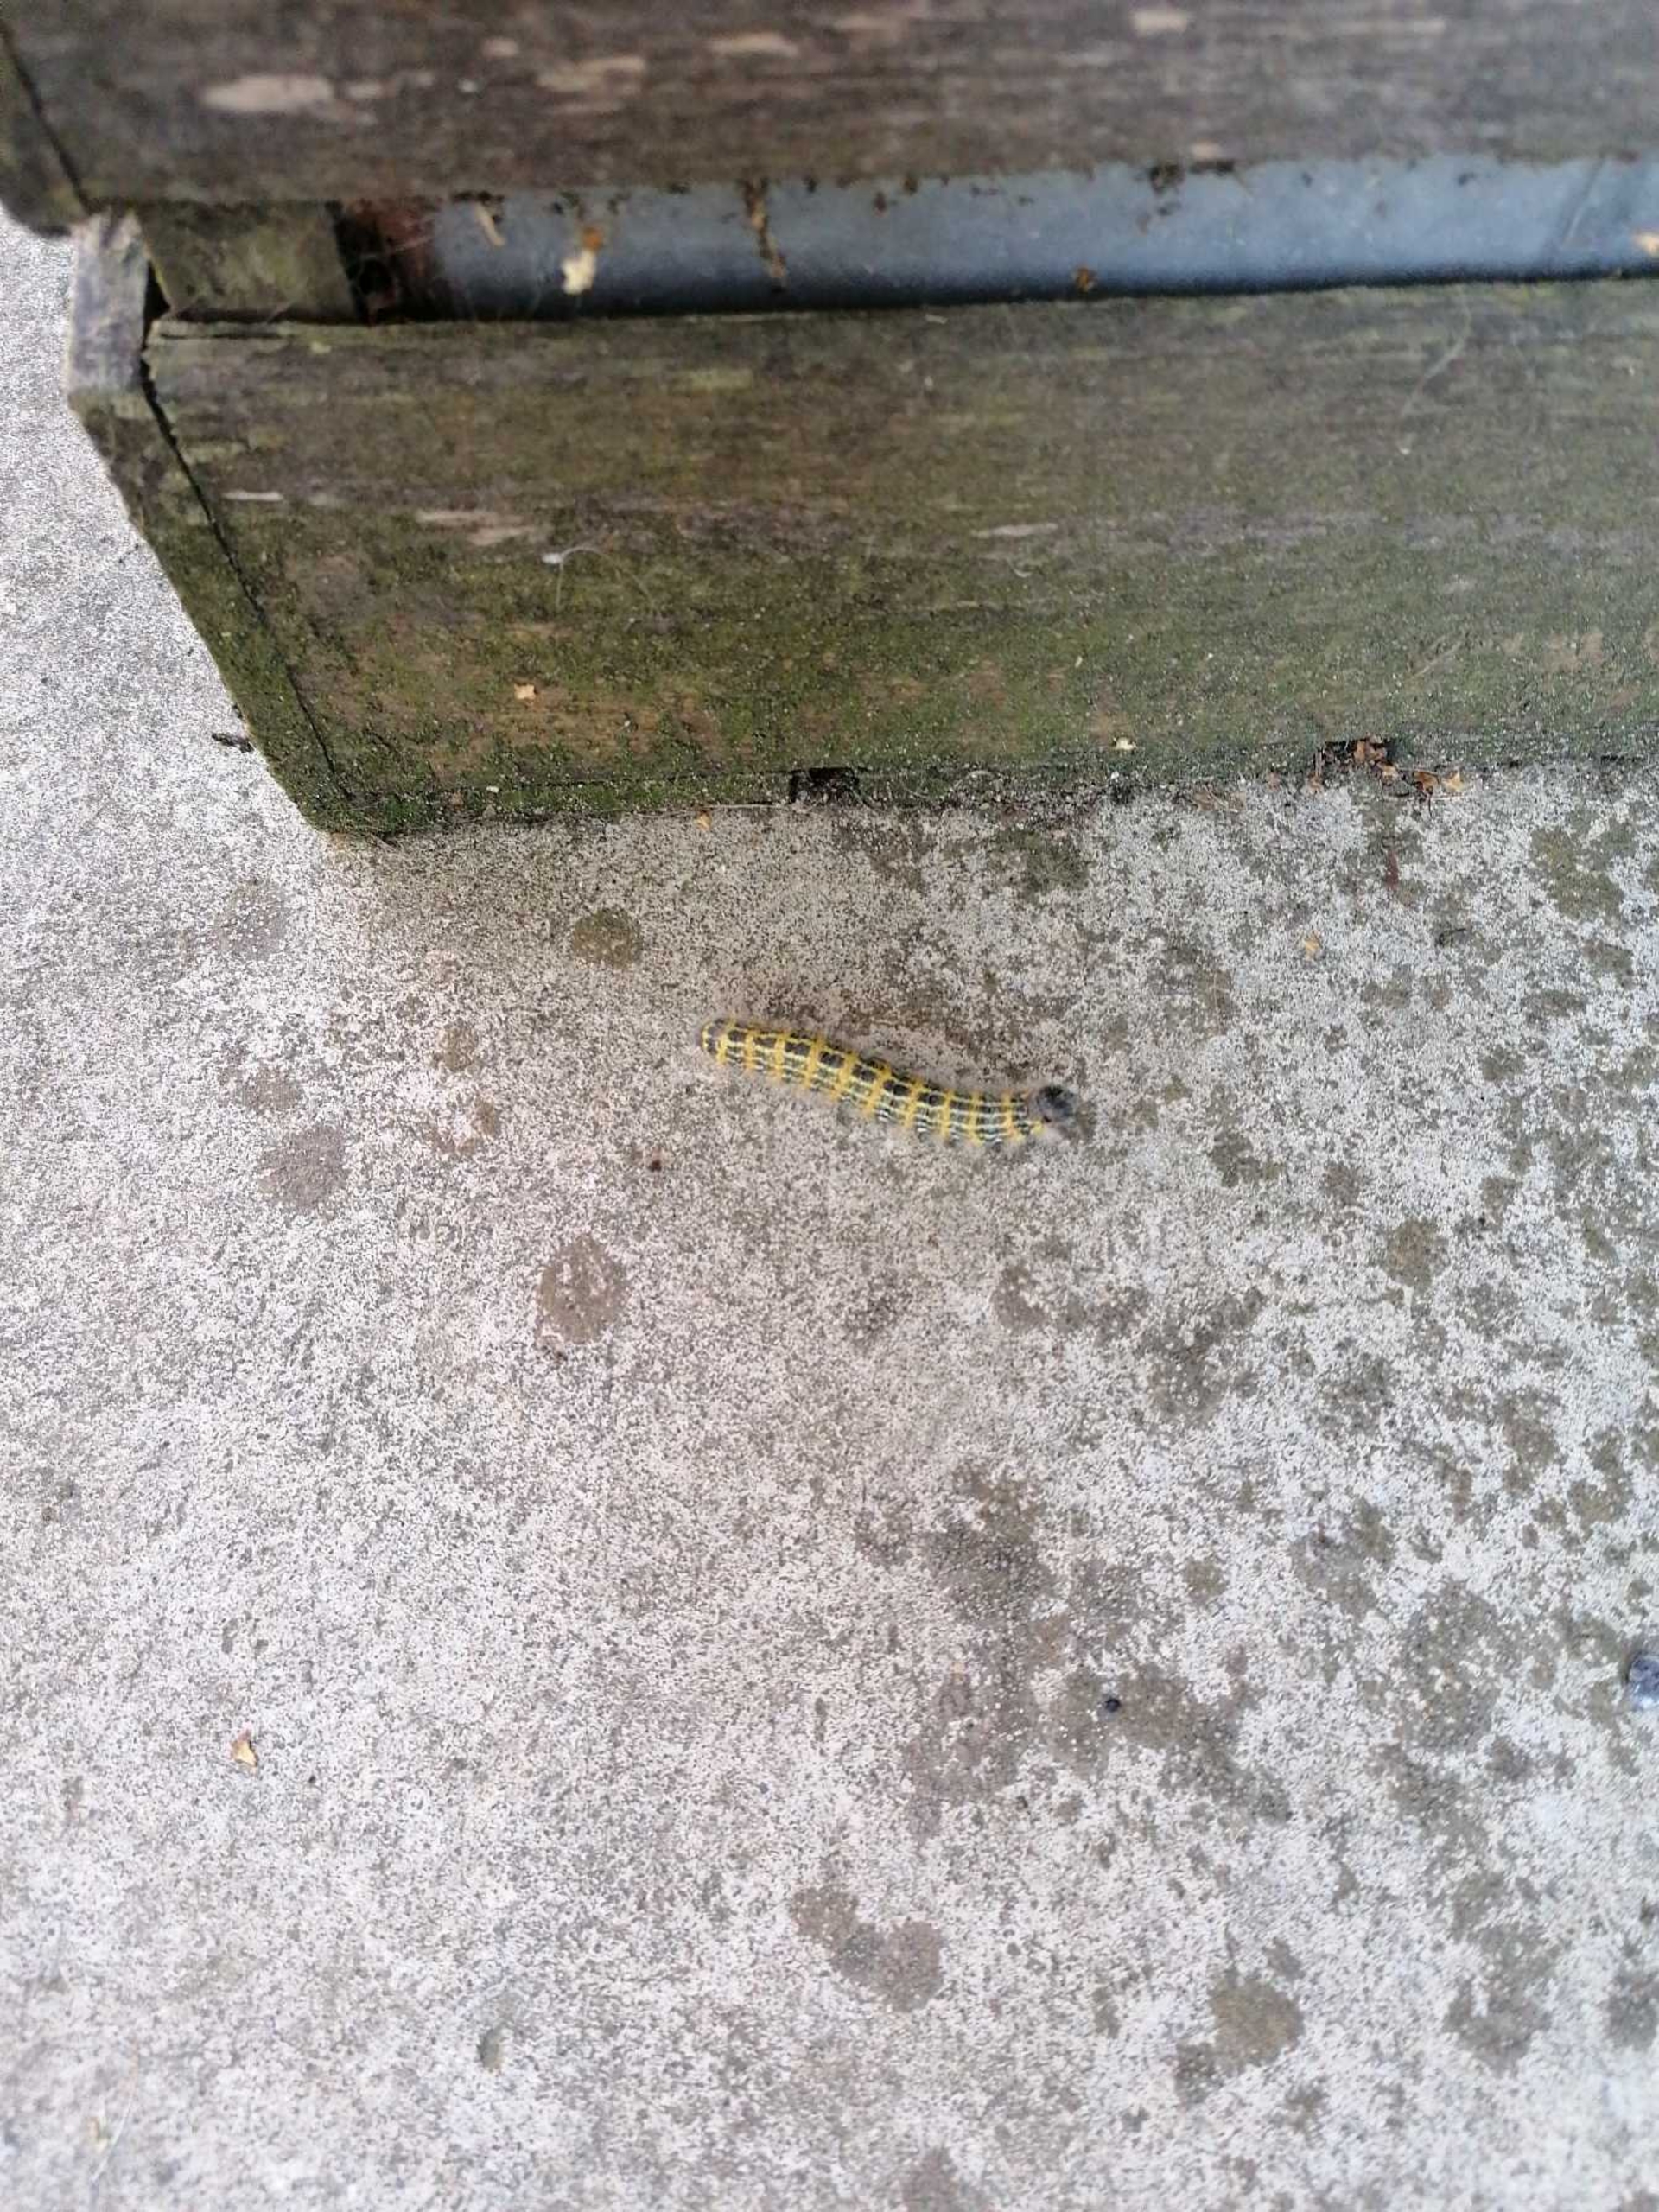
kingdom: Animalia
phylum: Arthropoda
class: Insecta
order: Lepidoptera
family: Notodontidae
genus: Phalera
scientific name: Phalera bucephala
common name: Måneplet
